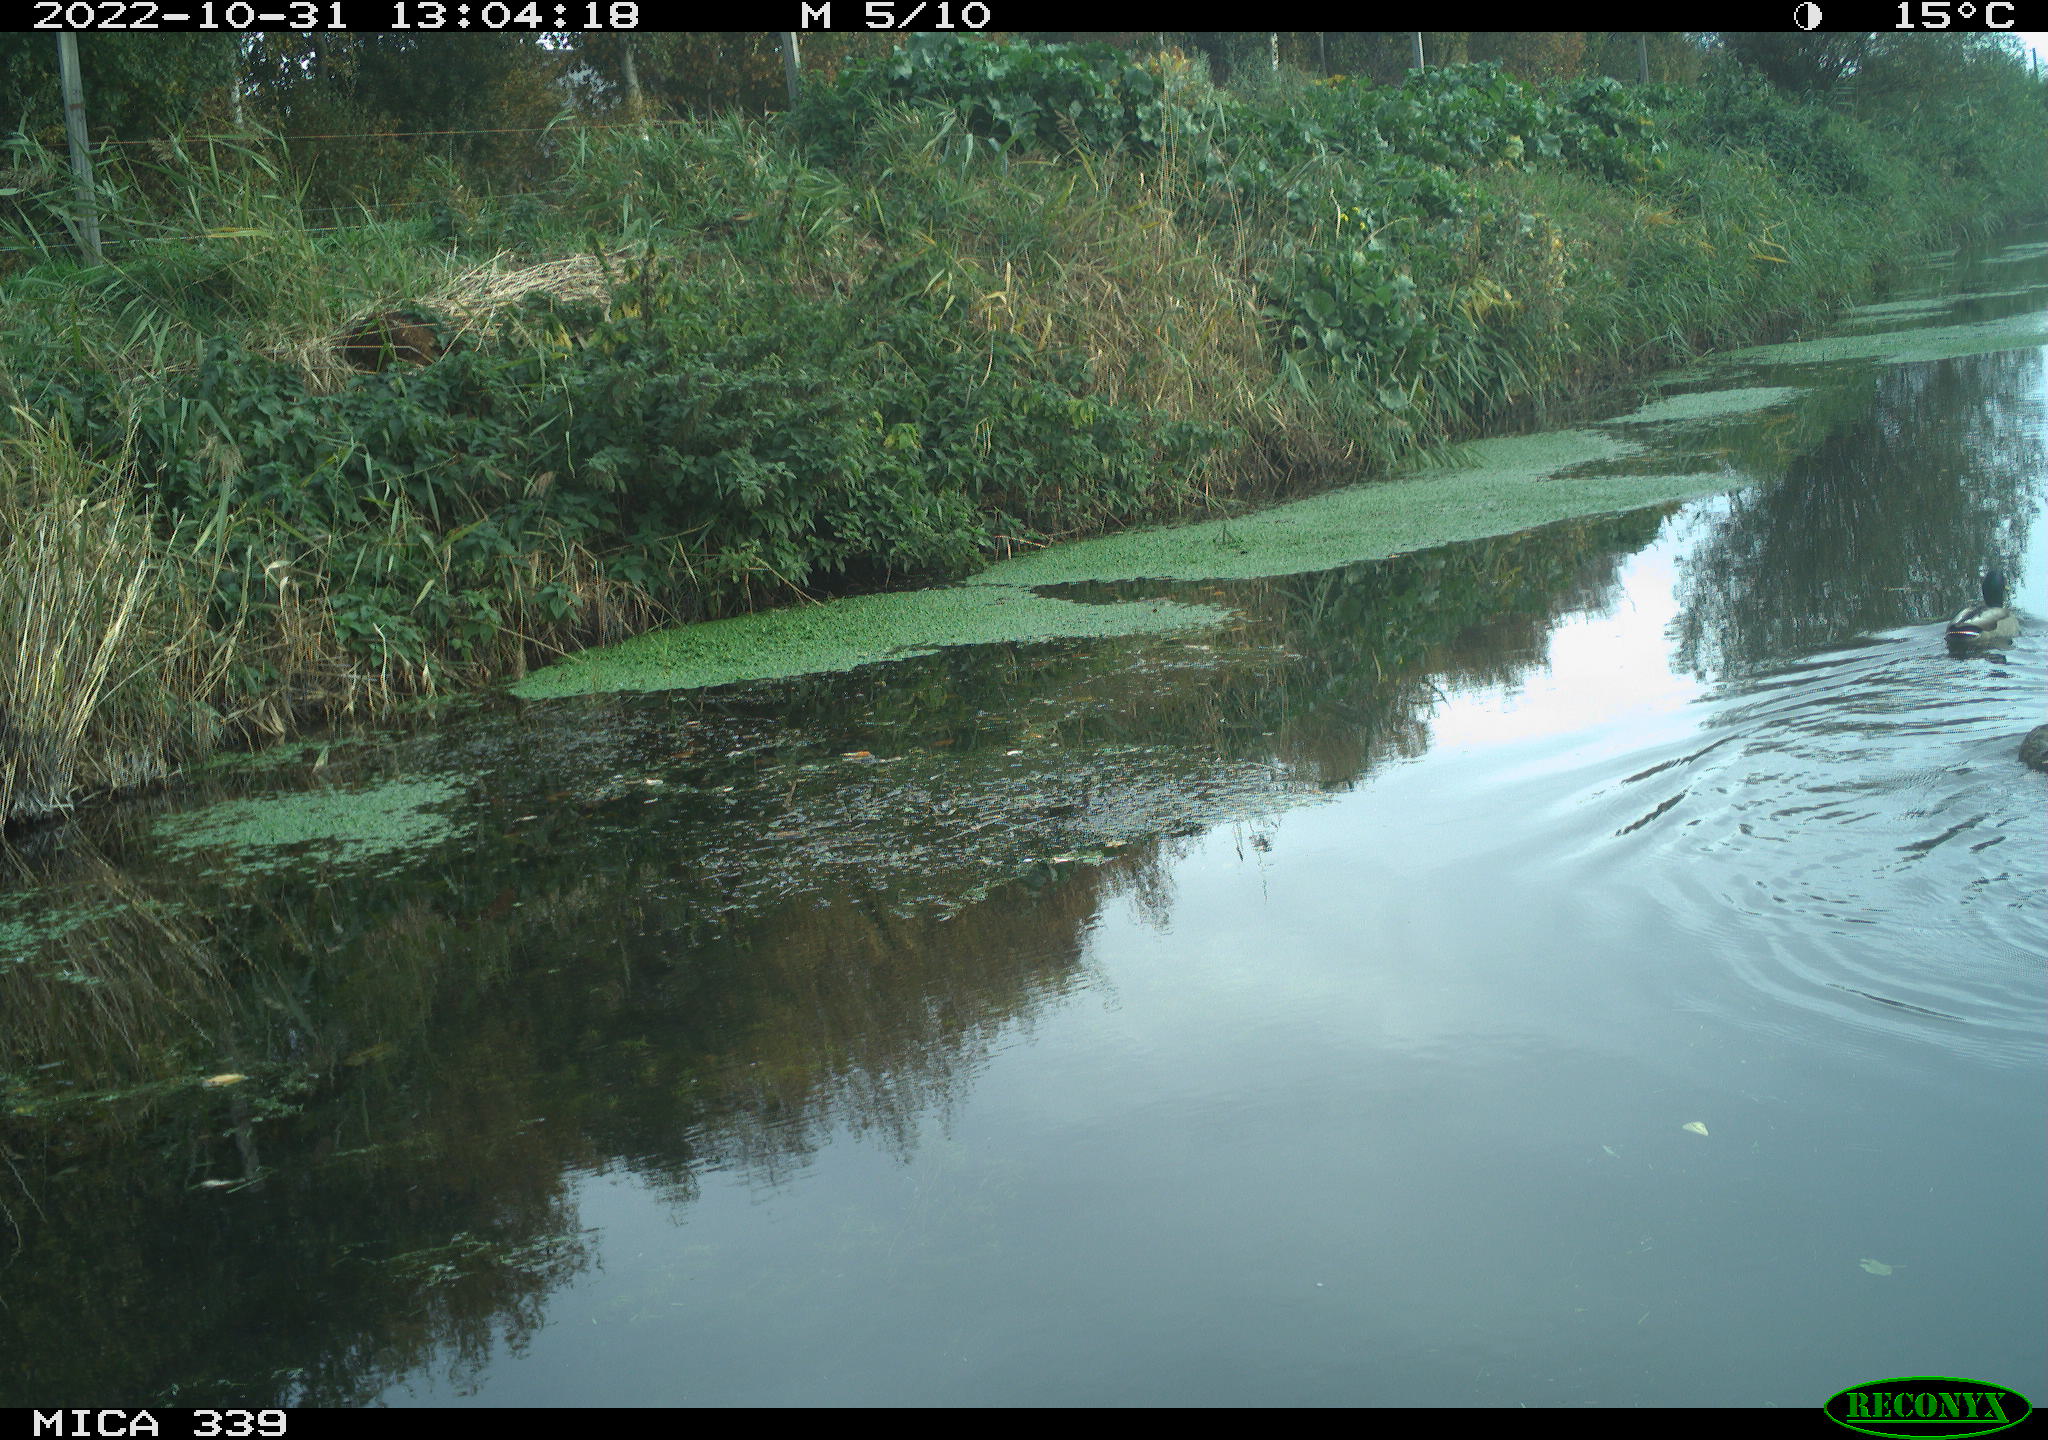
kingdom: Animalia
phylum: Chordata
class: Aves
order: Anseriformes
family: Anatidae
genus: Anas
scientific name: Anas platyrhynchos
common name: Mallard
